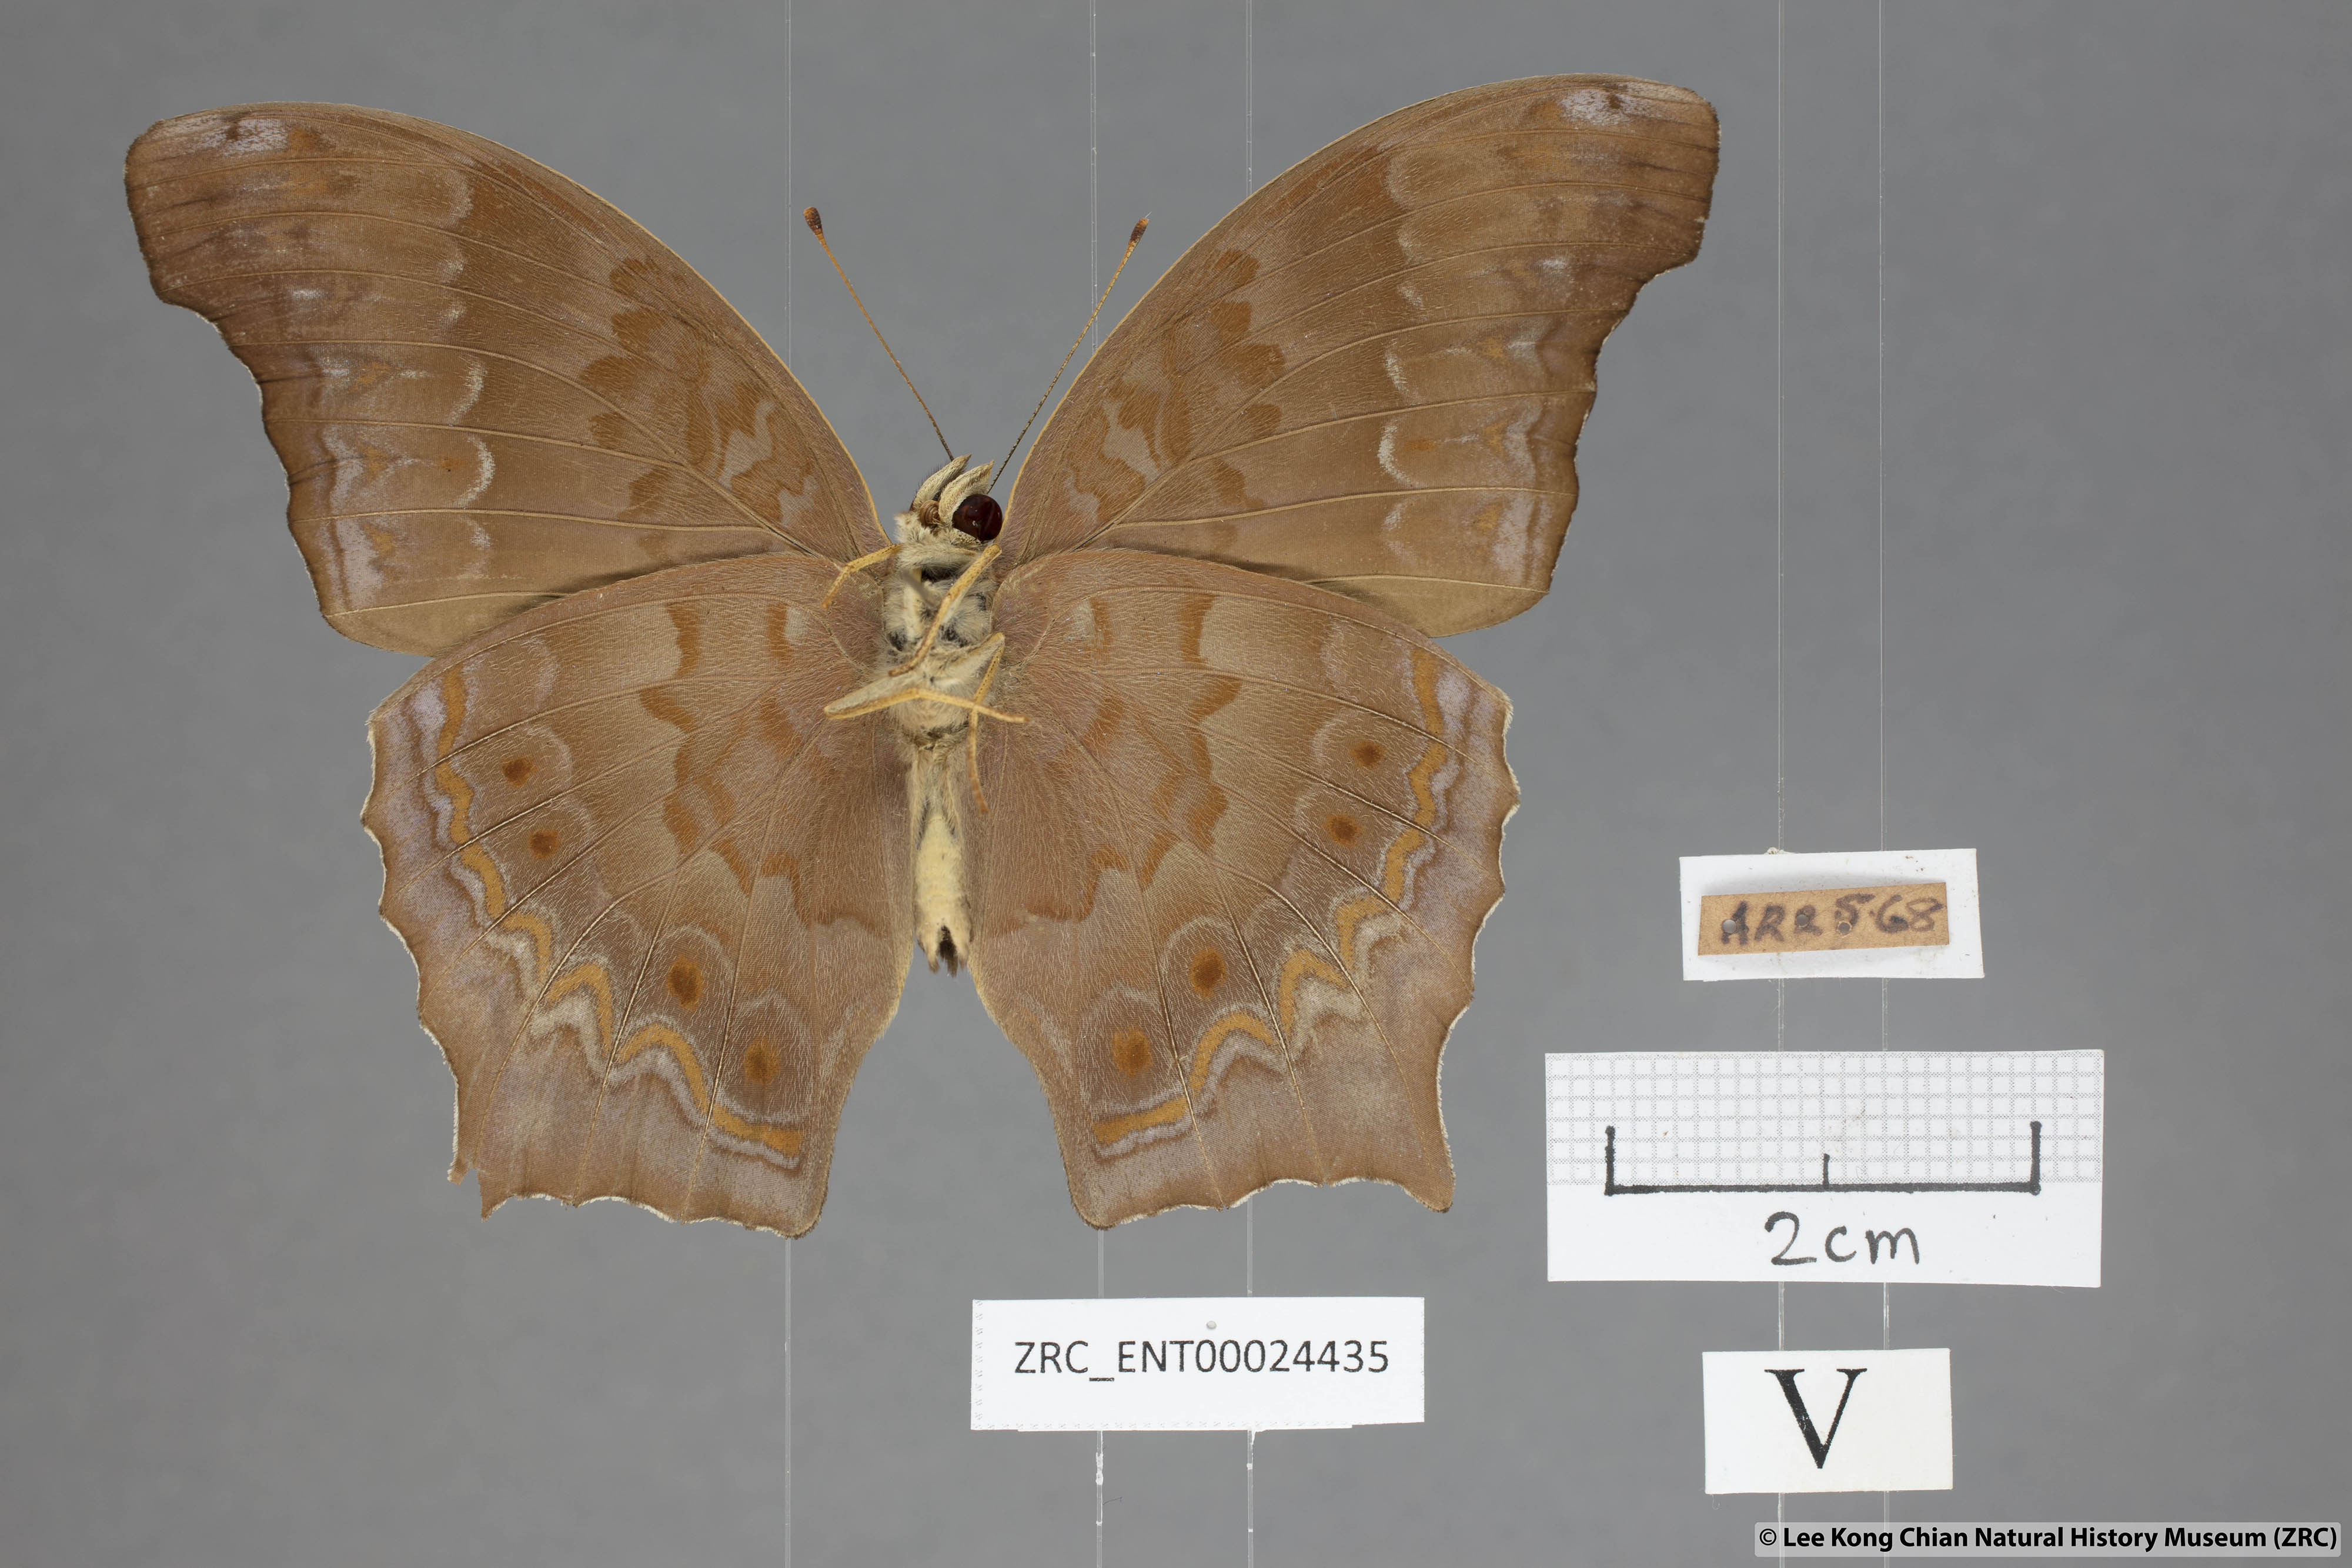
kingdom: Animalia
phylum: Arthropoda
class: Insecta
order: Lepidoptera
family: Nymphalidae
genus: Terinos
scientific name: Terinos terpander
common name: Royal assyrian
